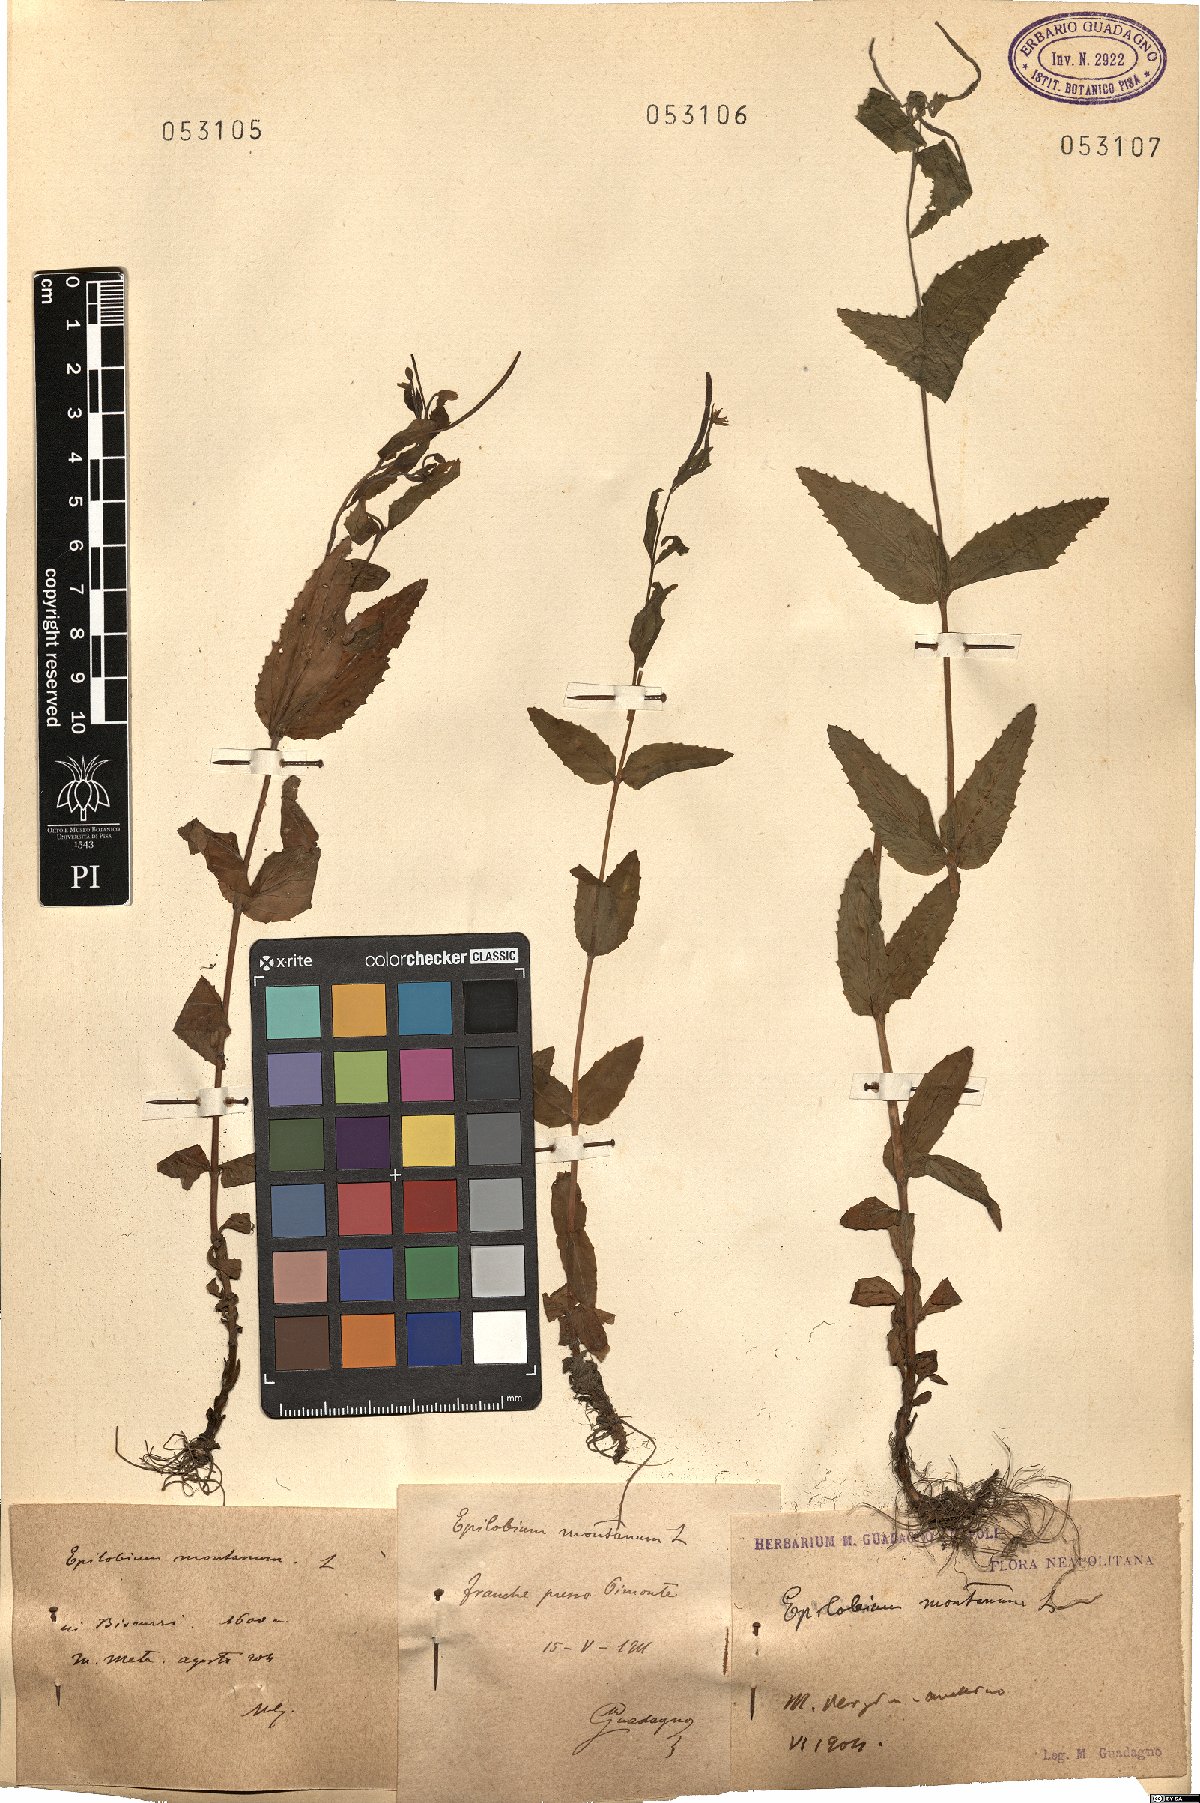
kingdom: Plantae
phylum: Tracheophyta
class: Magnoliopsida
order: Myrtales
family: Onagraceae
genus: Epilobium
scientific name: Epilobium montanum
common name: Broad-leaved willowherb
